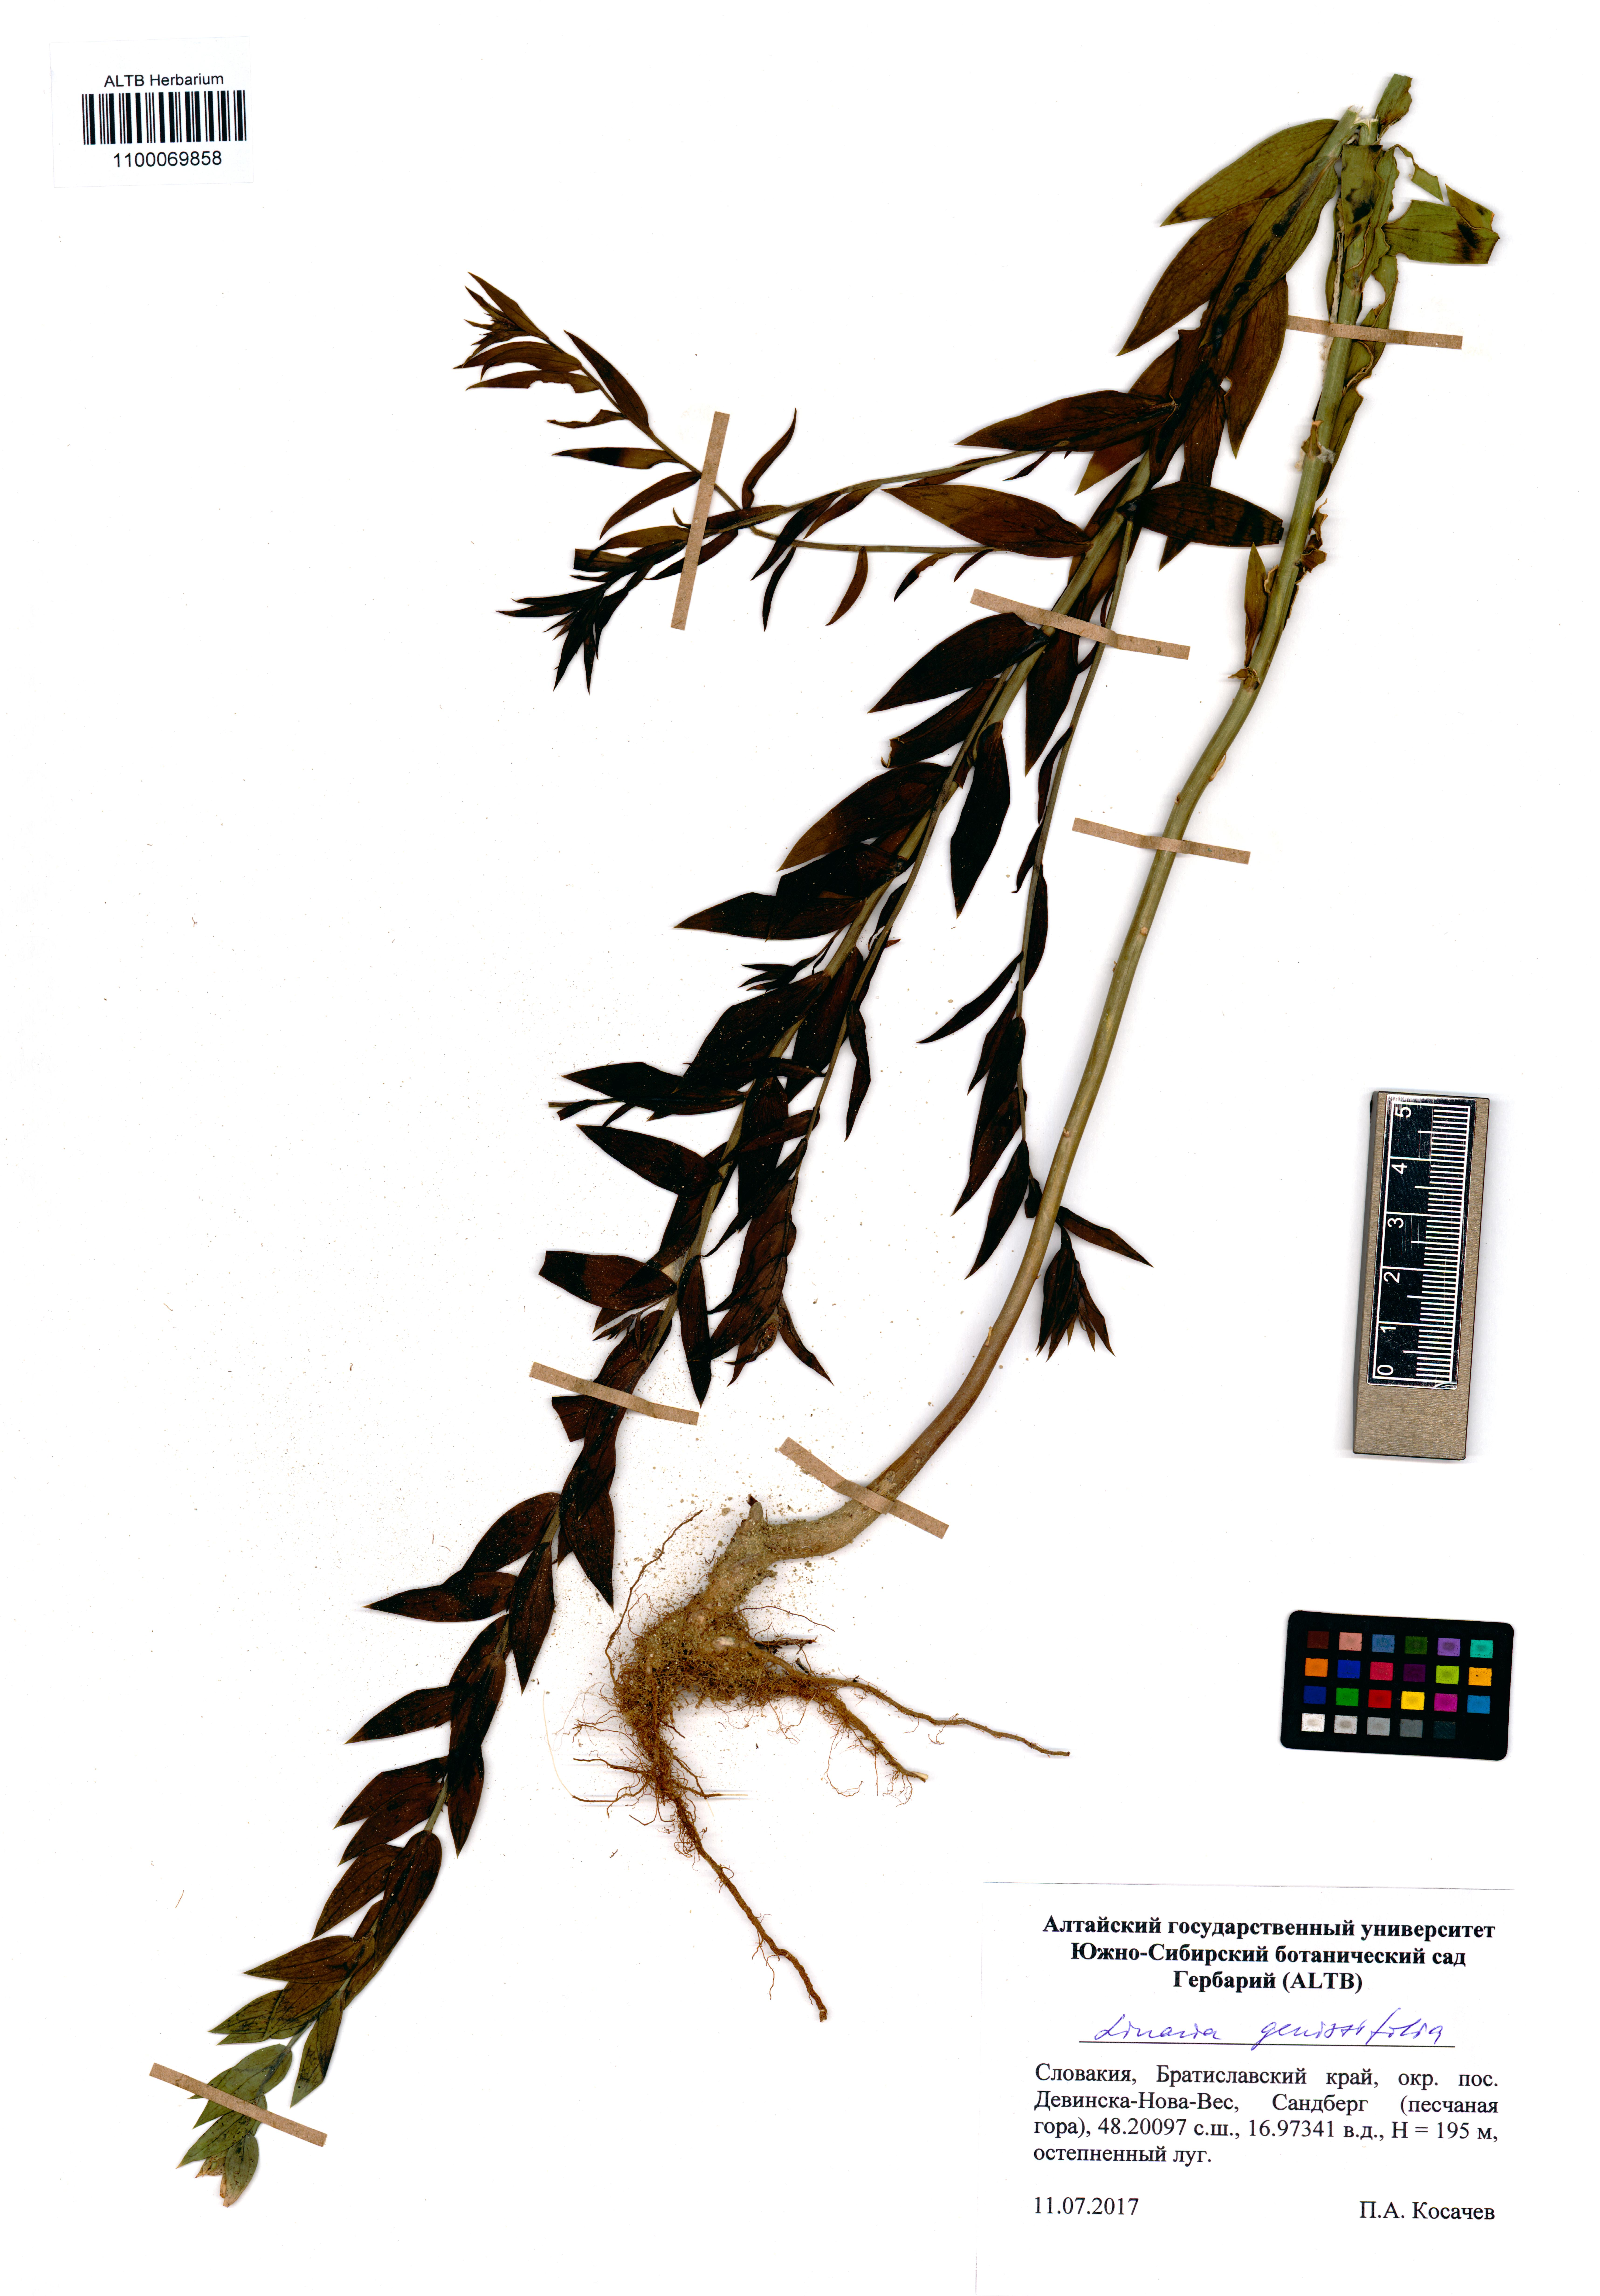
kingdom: Plantae
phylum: Tracheophyta
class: Magnoliopsida
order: Lamiales
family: Plantaginaceae
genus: Linaria
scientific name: Linaria genistifolia
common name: Broomleaf toadflax
